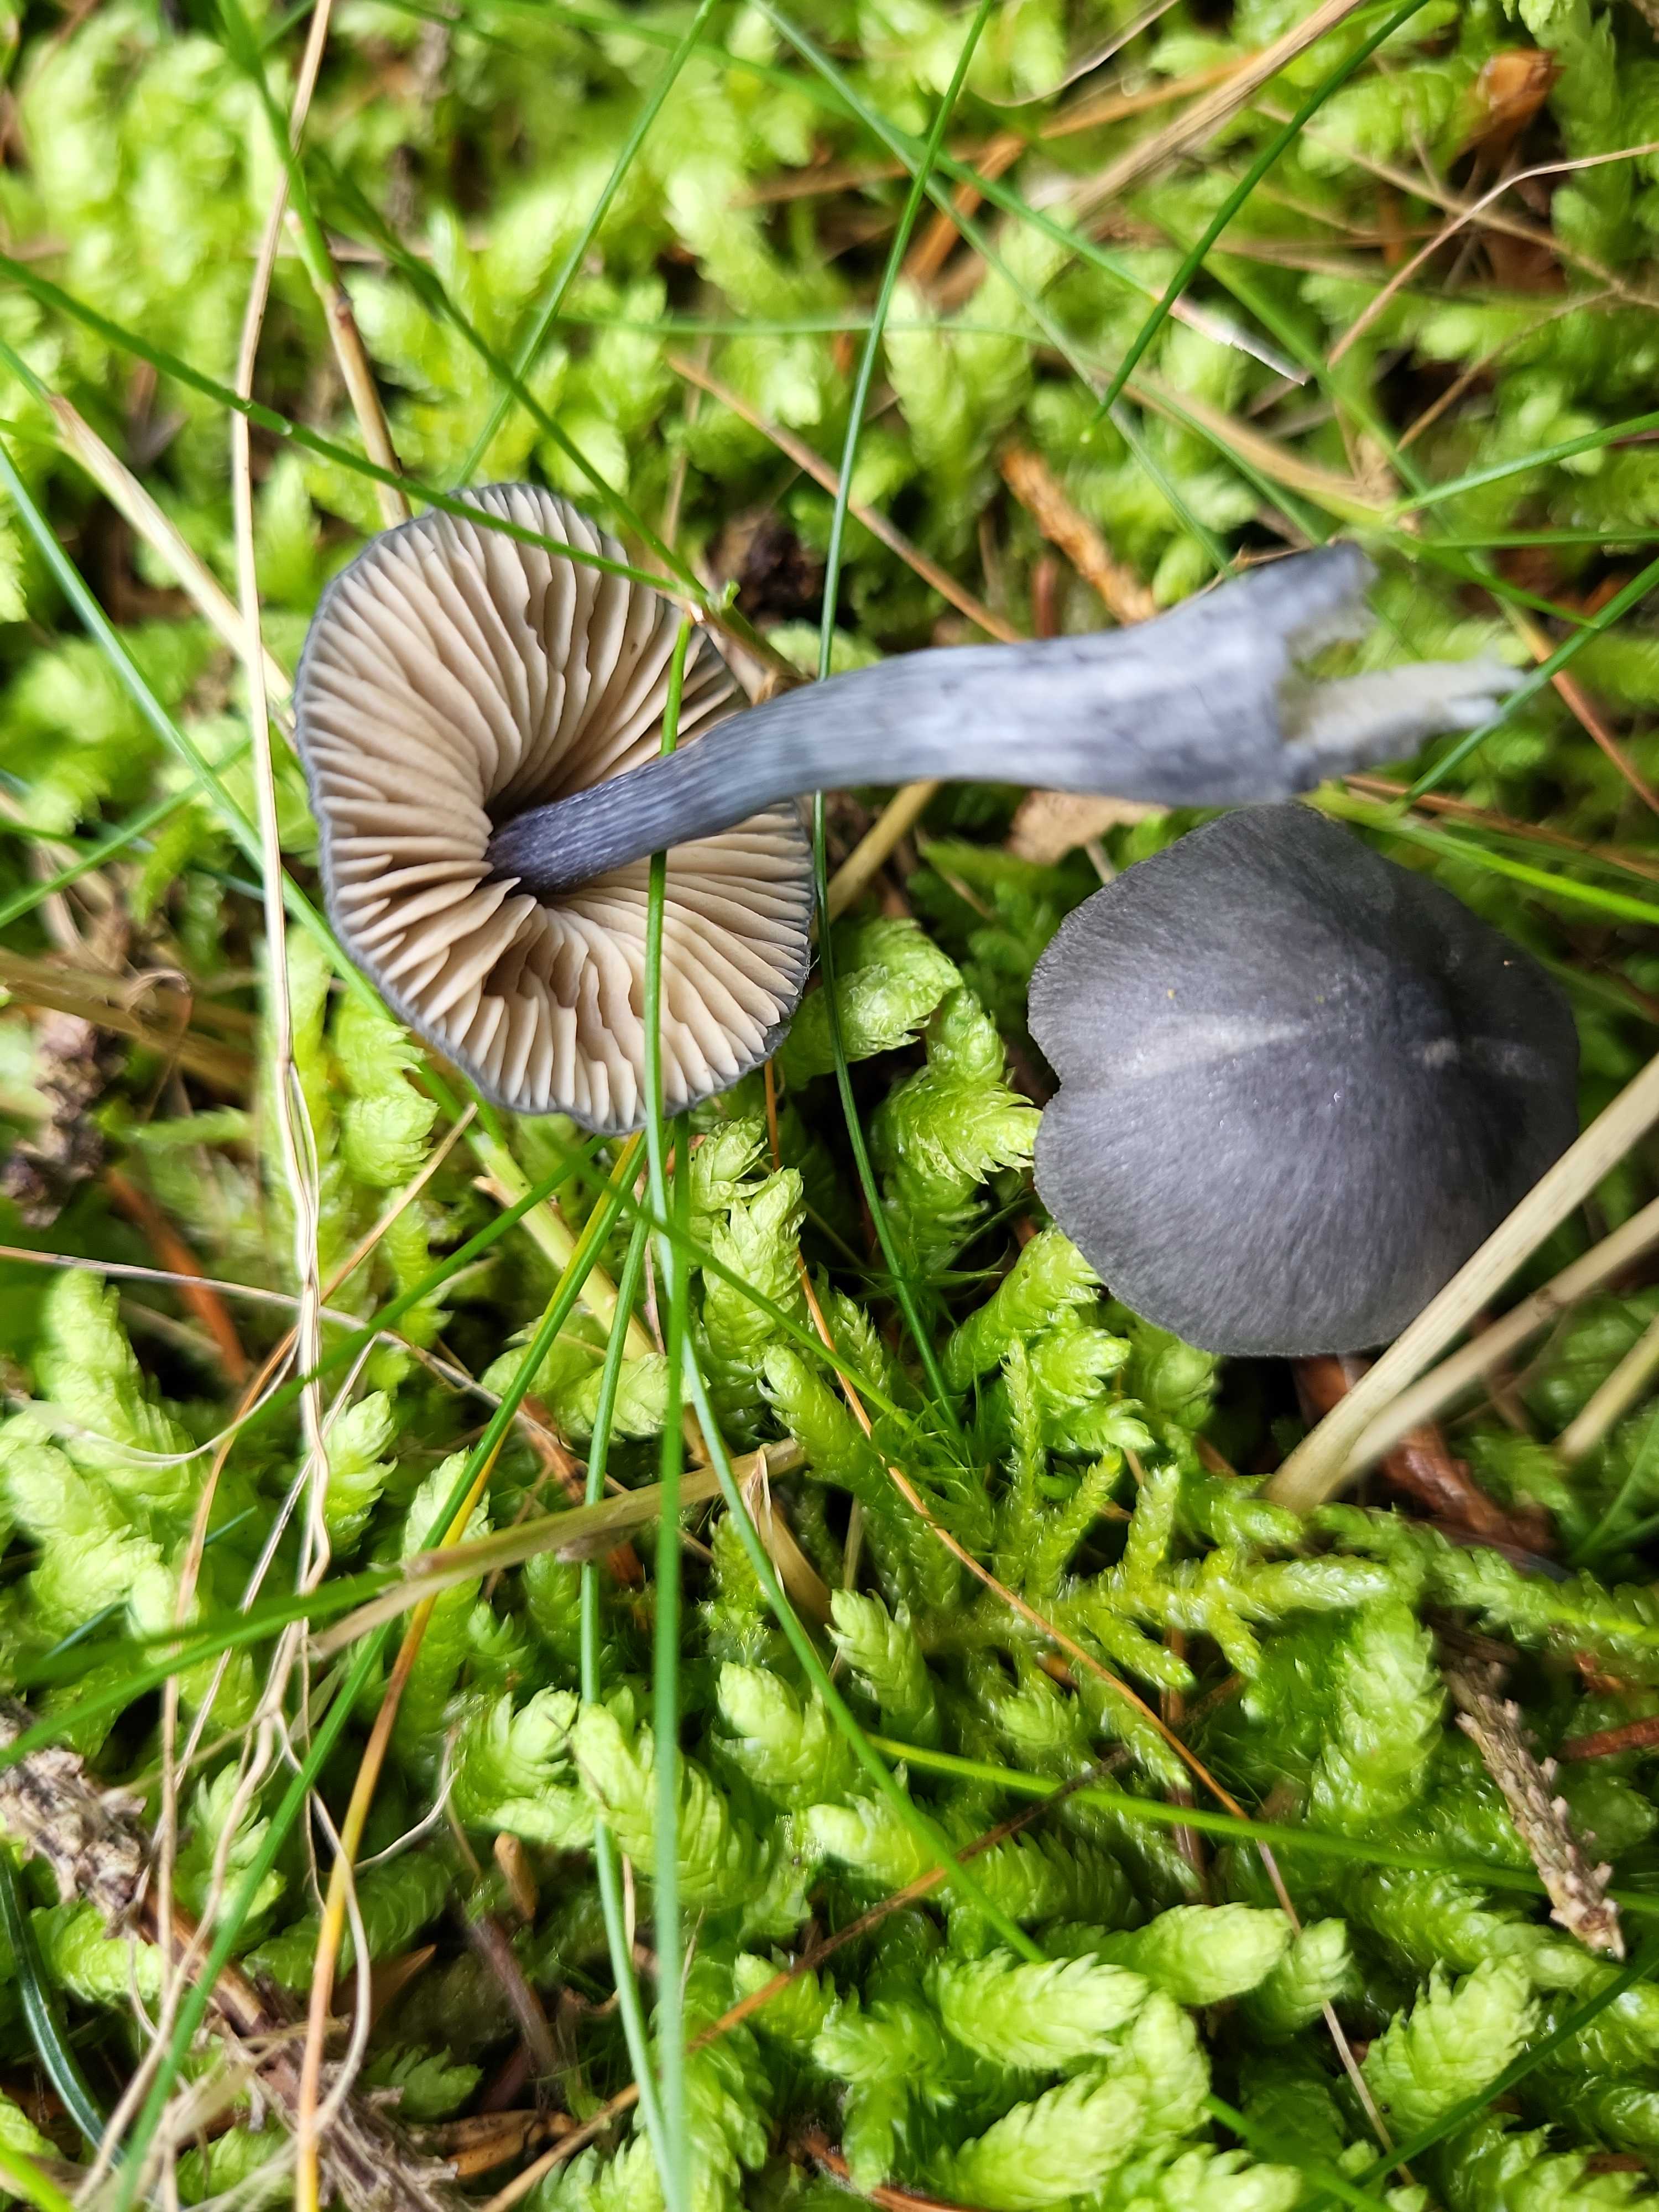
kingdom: Fungi
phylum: Basidiomycota
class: Agaricomycetes
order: Agaricales
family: Entolomataceae
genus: Entocybe
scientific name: Entocybe nitida
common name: stålblå rødblad
